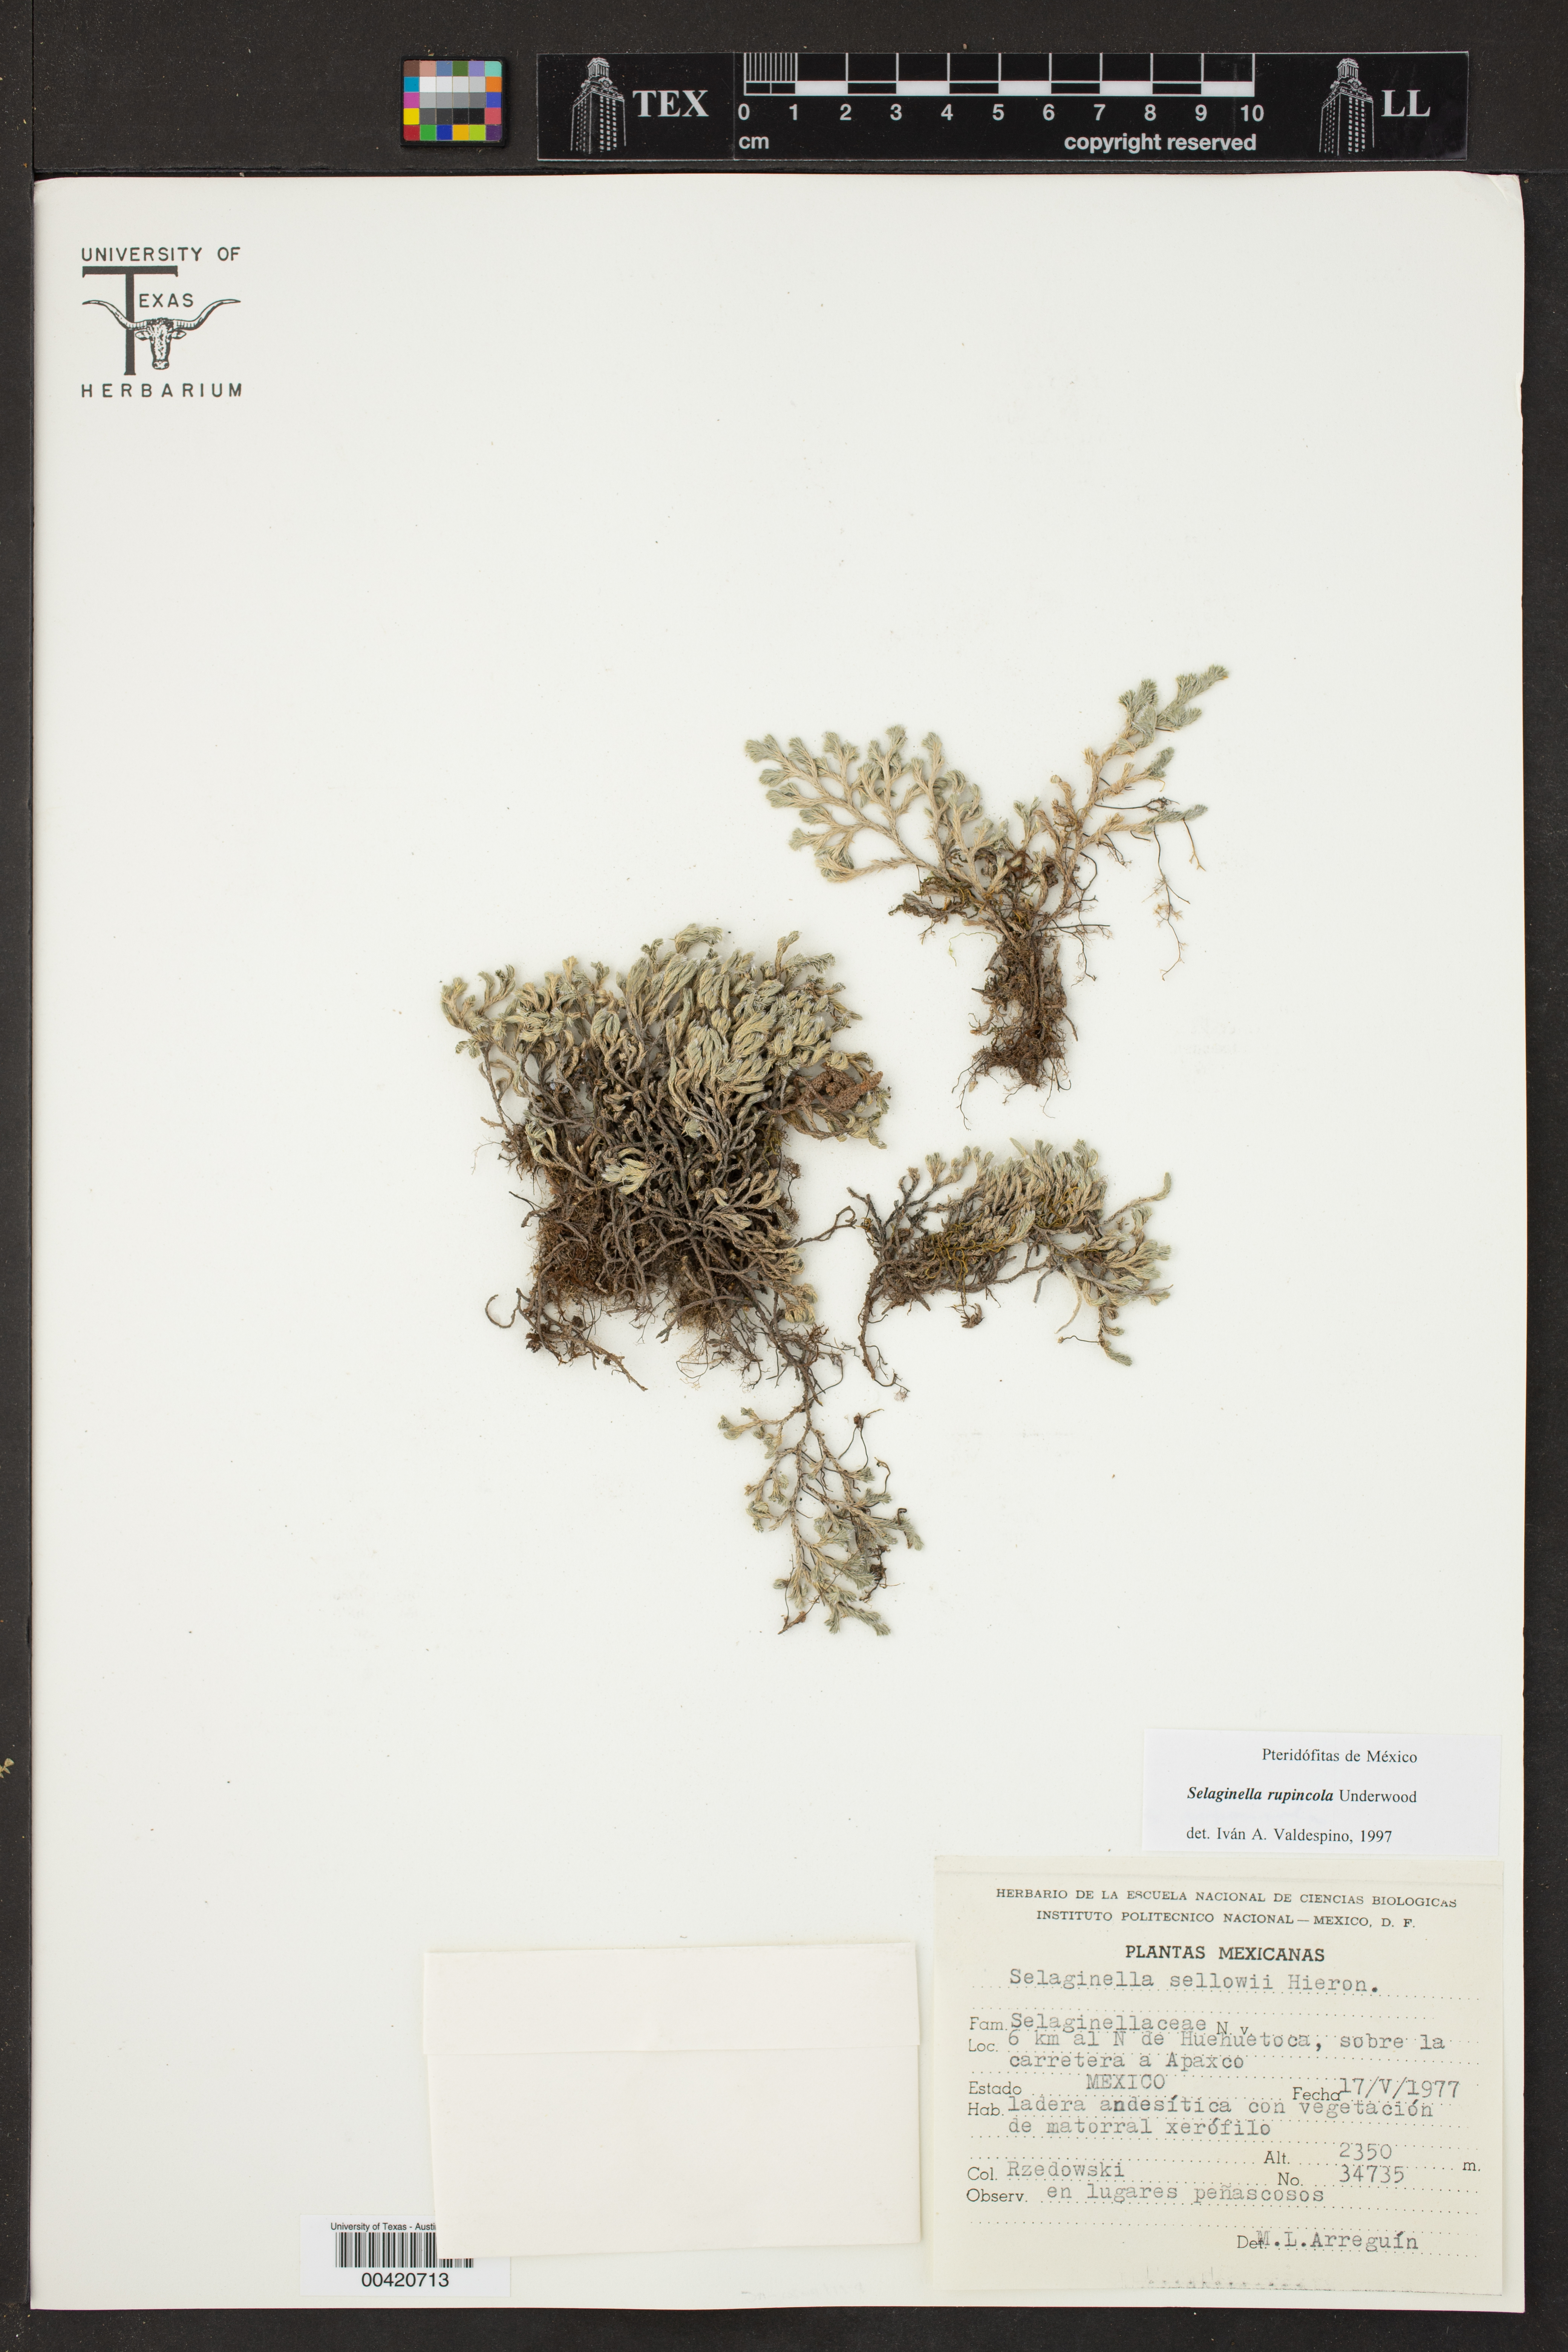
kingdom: Plantae
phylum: Tracheophyta
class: Lycopodiopsida
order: Selaginellales
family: Selaginellaceae
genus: Selaginella
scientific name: Selaginella rupincola
